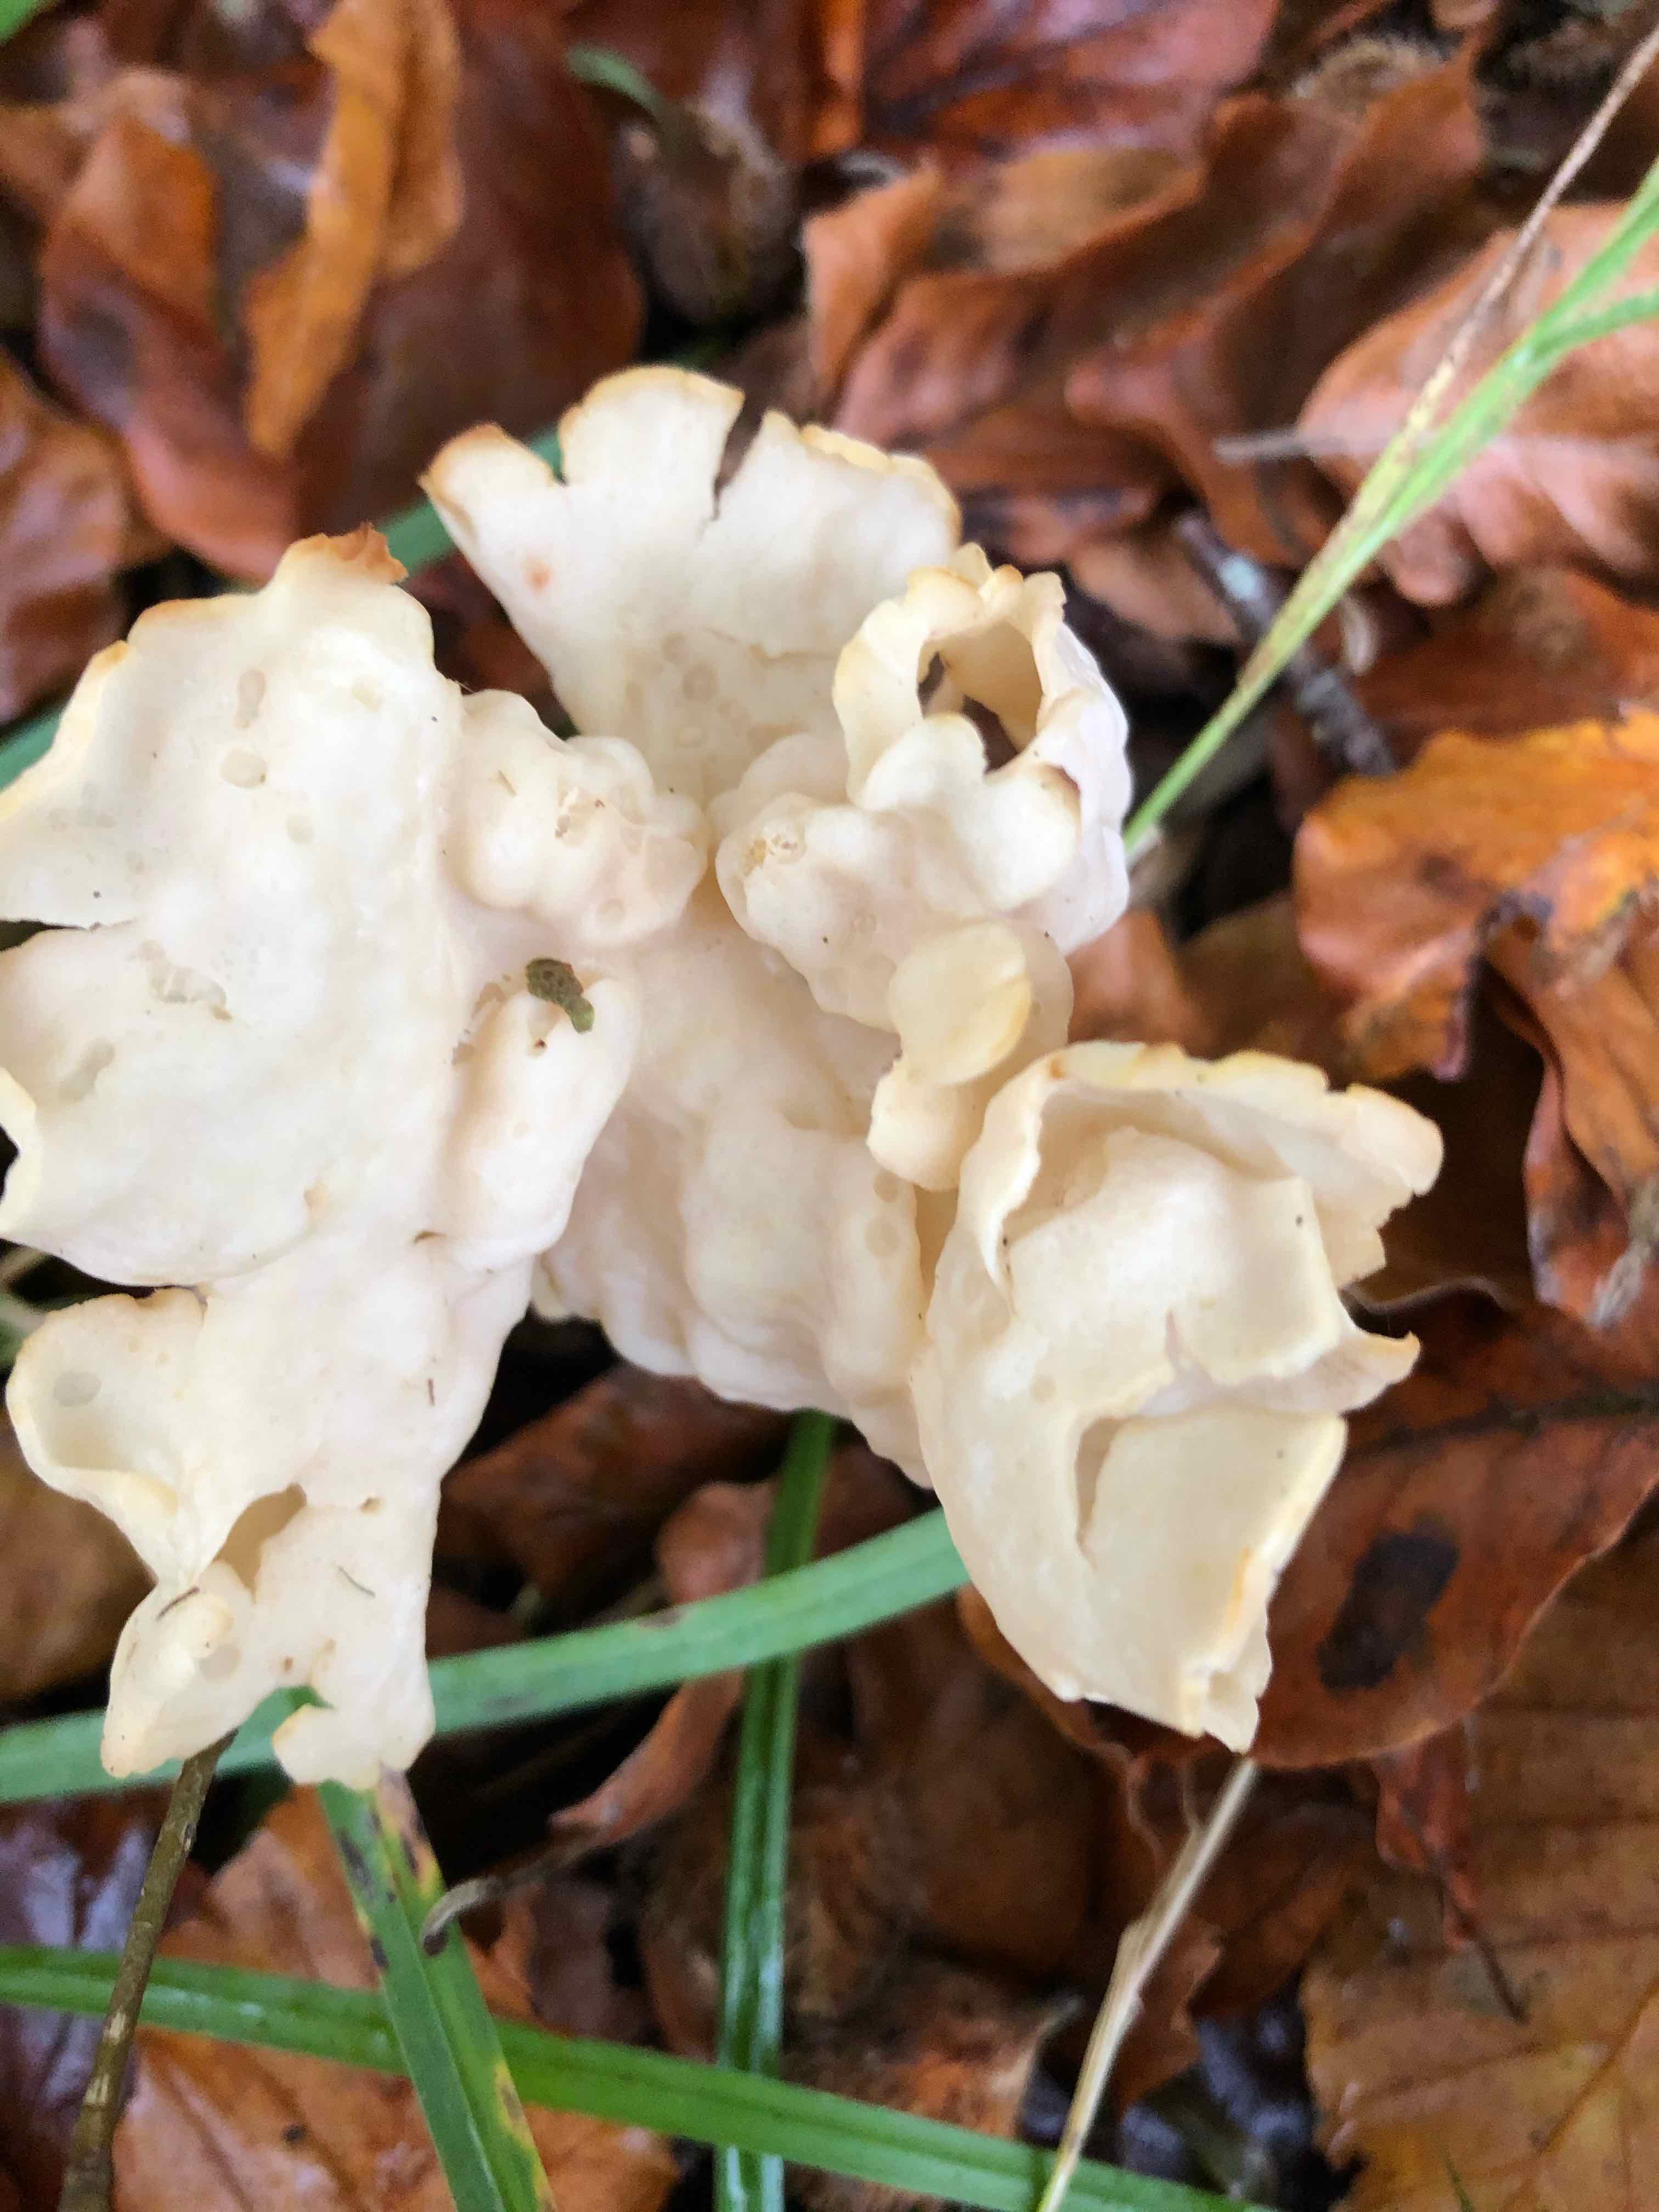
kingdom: Fungi
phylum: Ascomycota
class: Pezizomycetes
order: Pezizales
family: Helvellaceae
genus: Helvella
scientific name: Helvella crispa
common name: kruset foldhat
